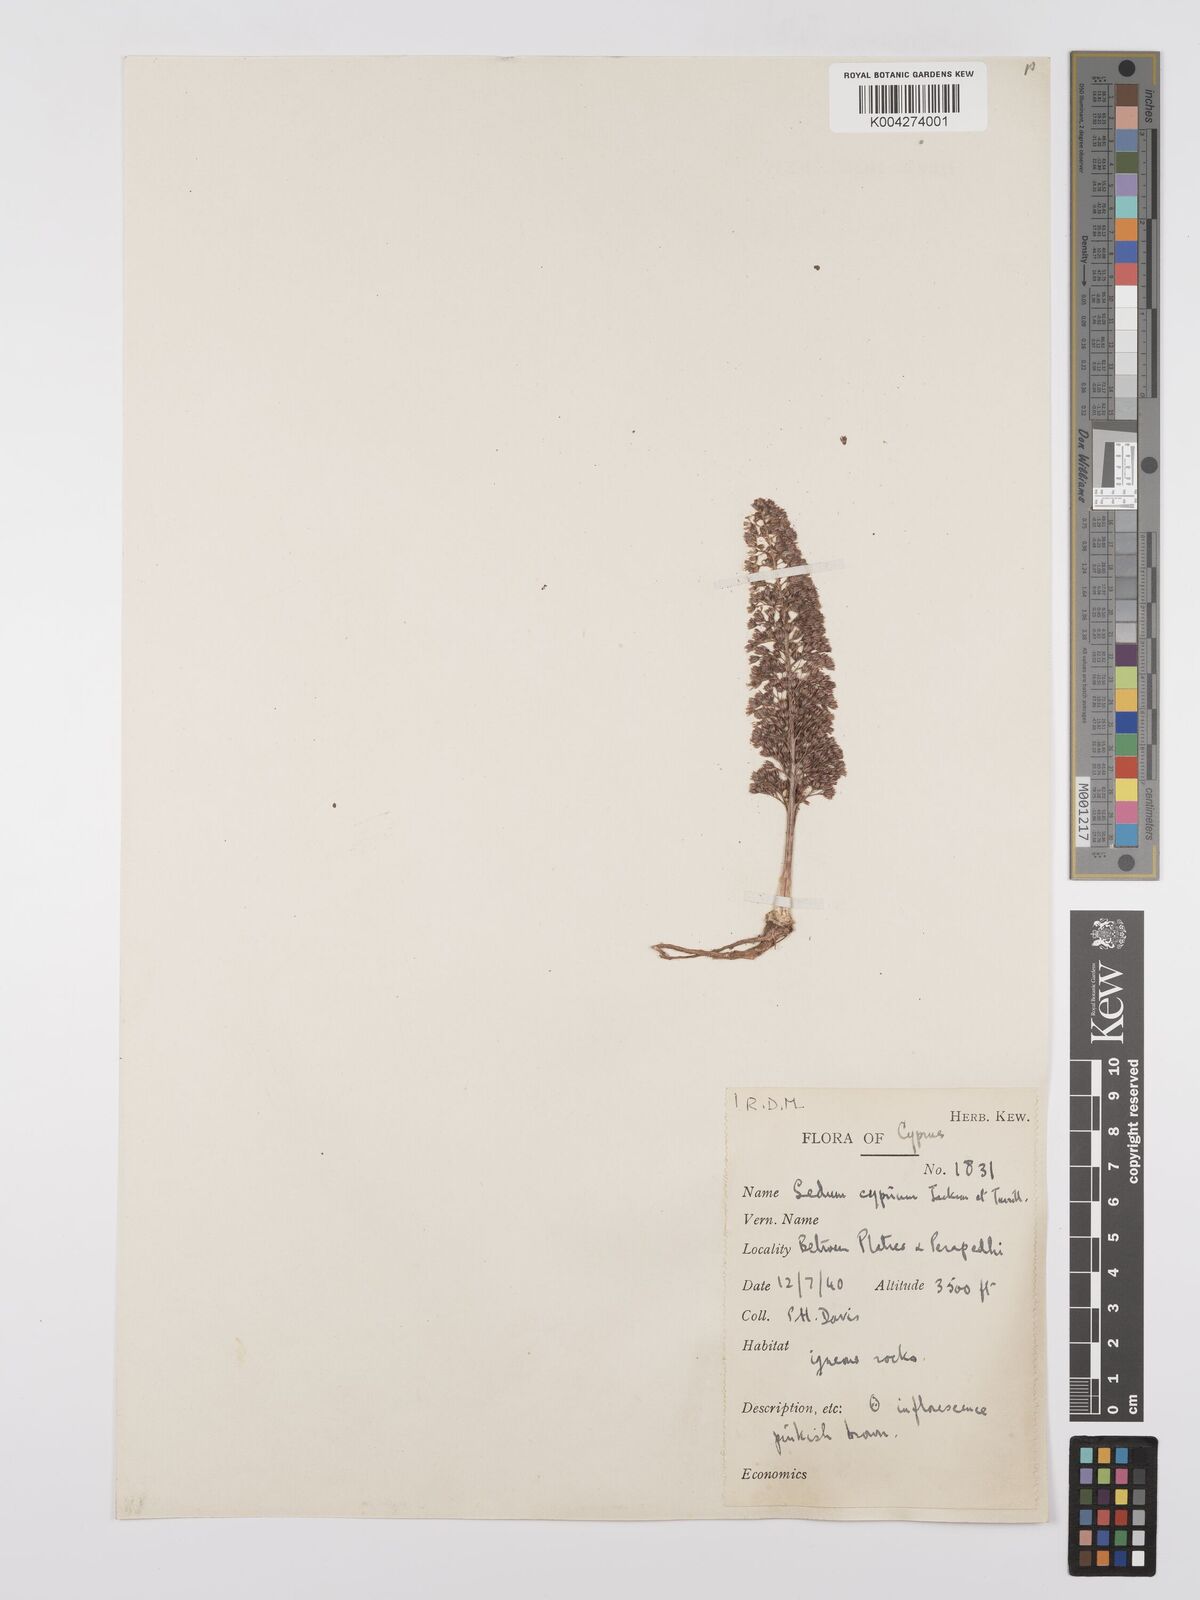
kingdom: Plantae
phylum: Tracheophyta
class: Magnoliopsida
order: Saxifragales
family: Crassulaceae
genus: Sedum
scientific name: Sedum cyprium
